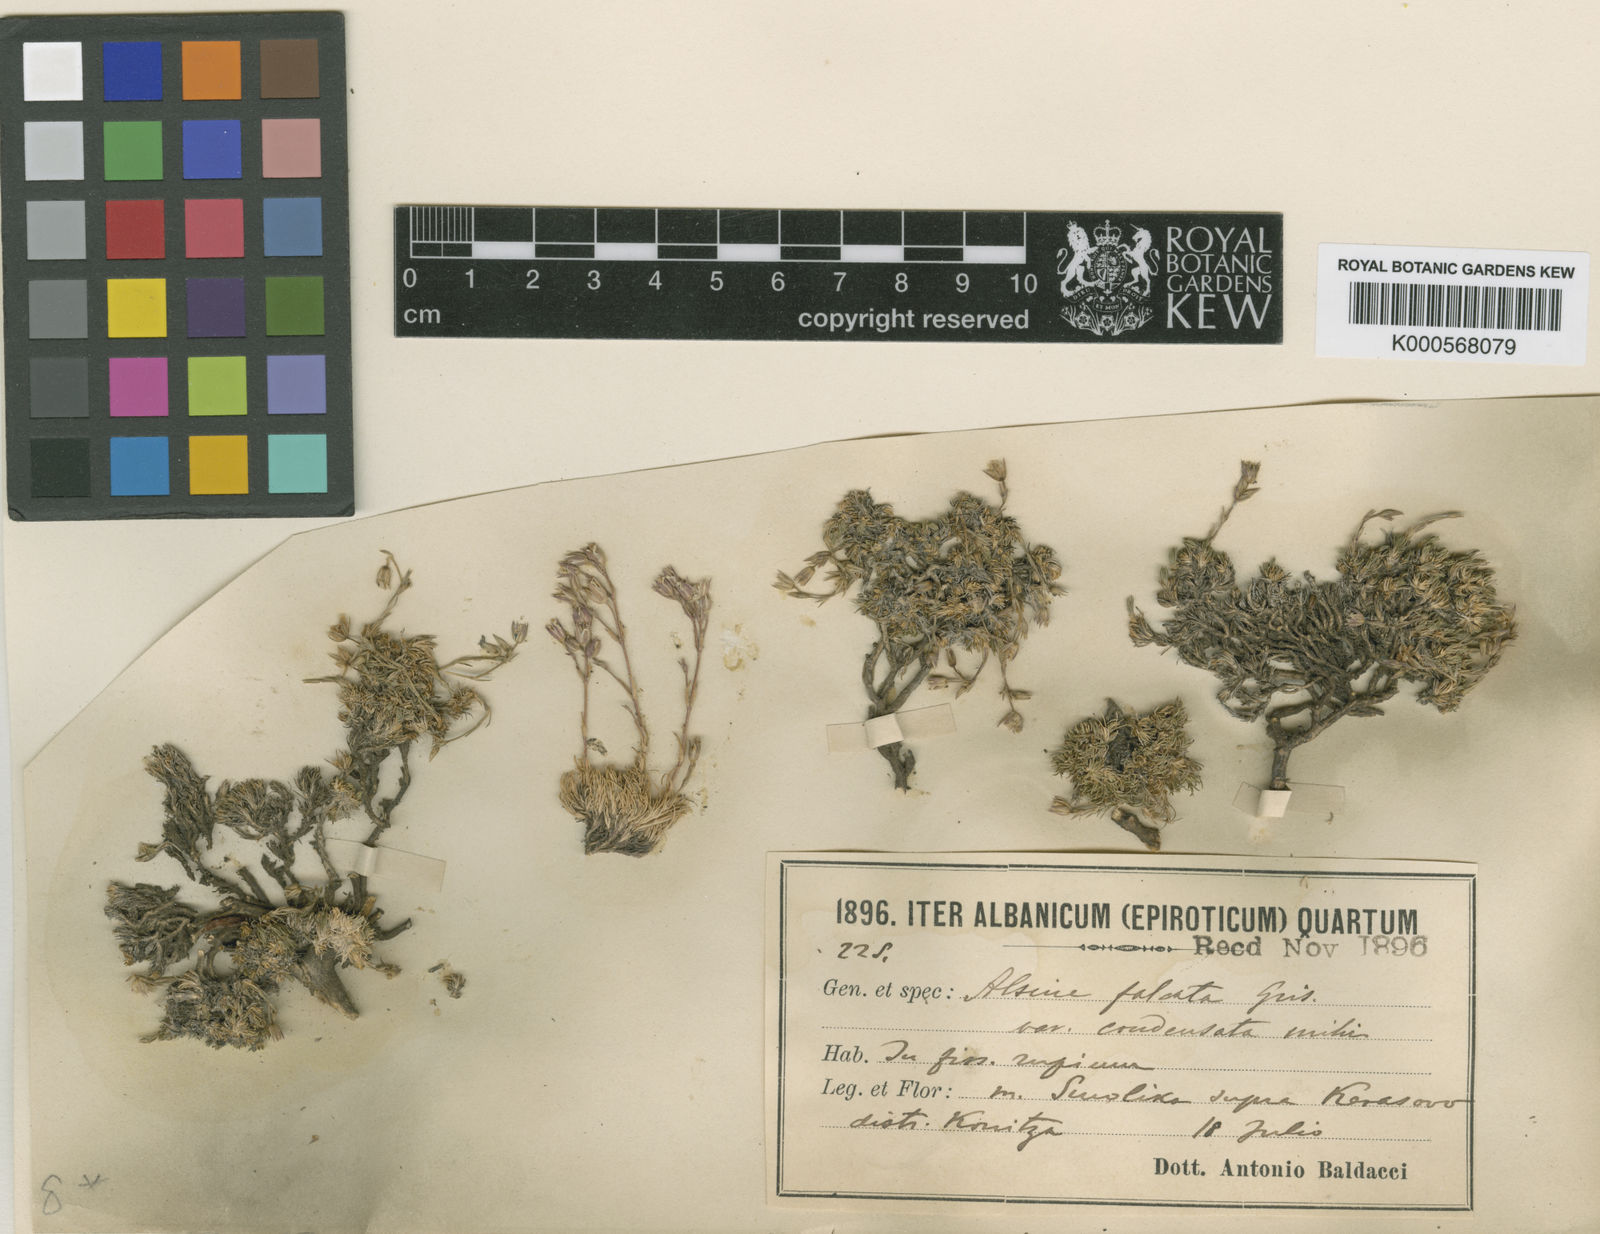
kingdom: Plantae
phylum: Tracheophyta
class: Magnoliopsida
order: Caryophyllales
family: Caryophyllaceae
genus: Minuartia
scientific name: Minuartia hirsuta
